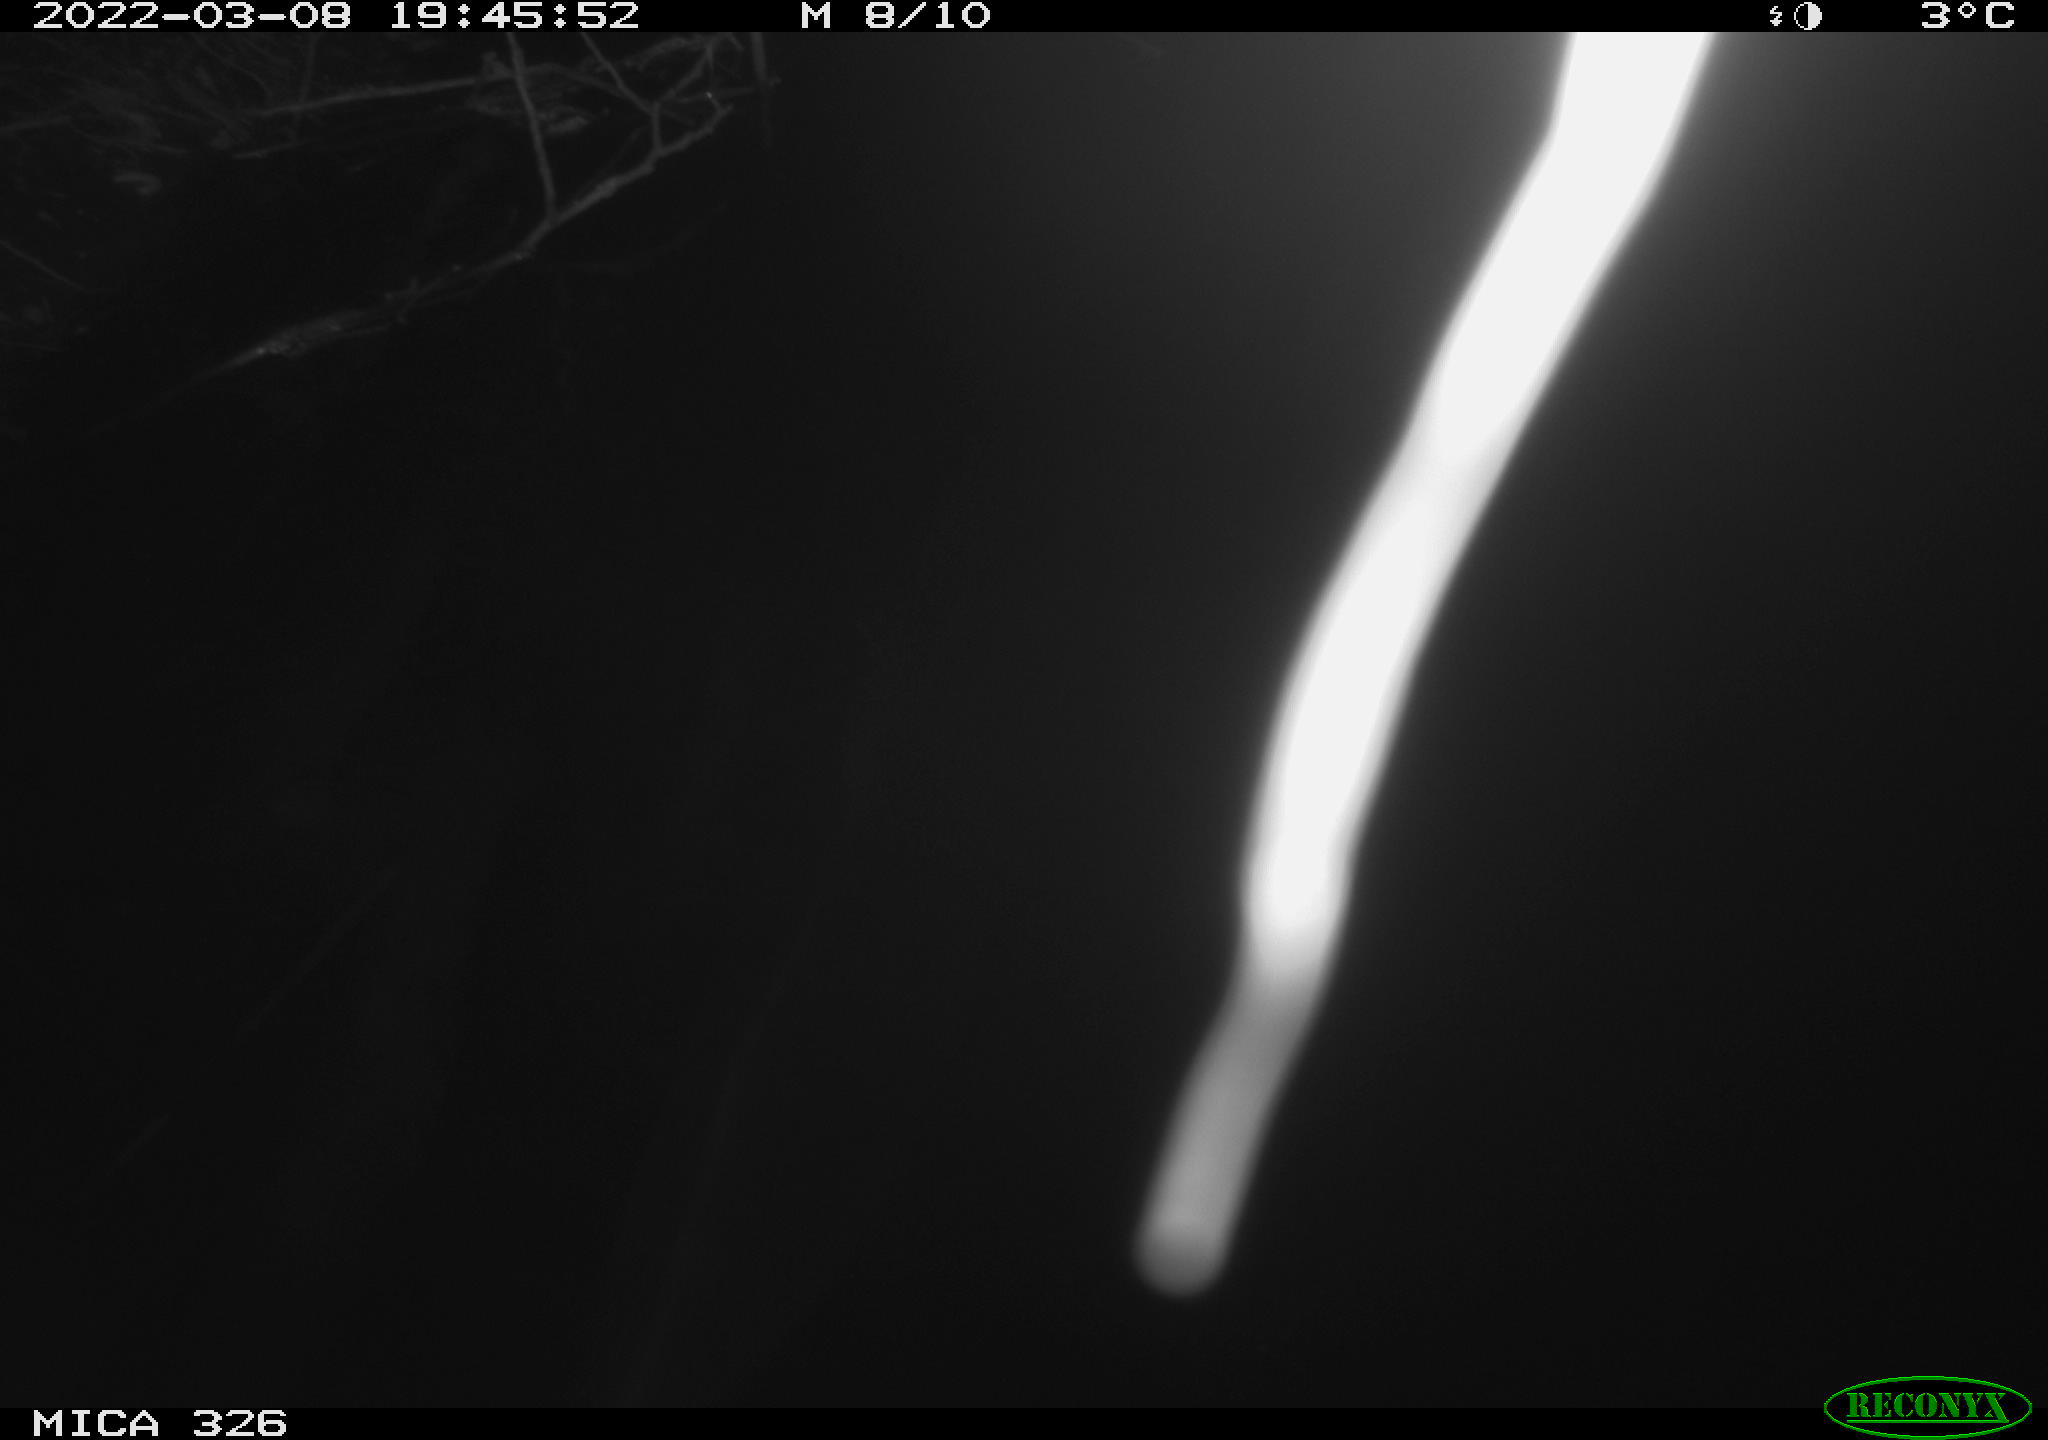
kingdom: Animalia
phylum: Chordata
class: Mammalia
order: Rodentia
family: Cricetidae
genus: Ondatra
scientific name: Ondatra zibethicus
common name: Muskrat
